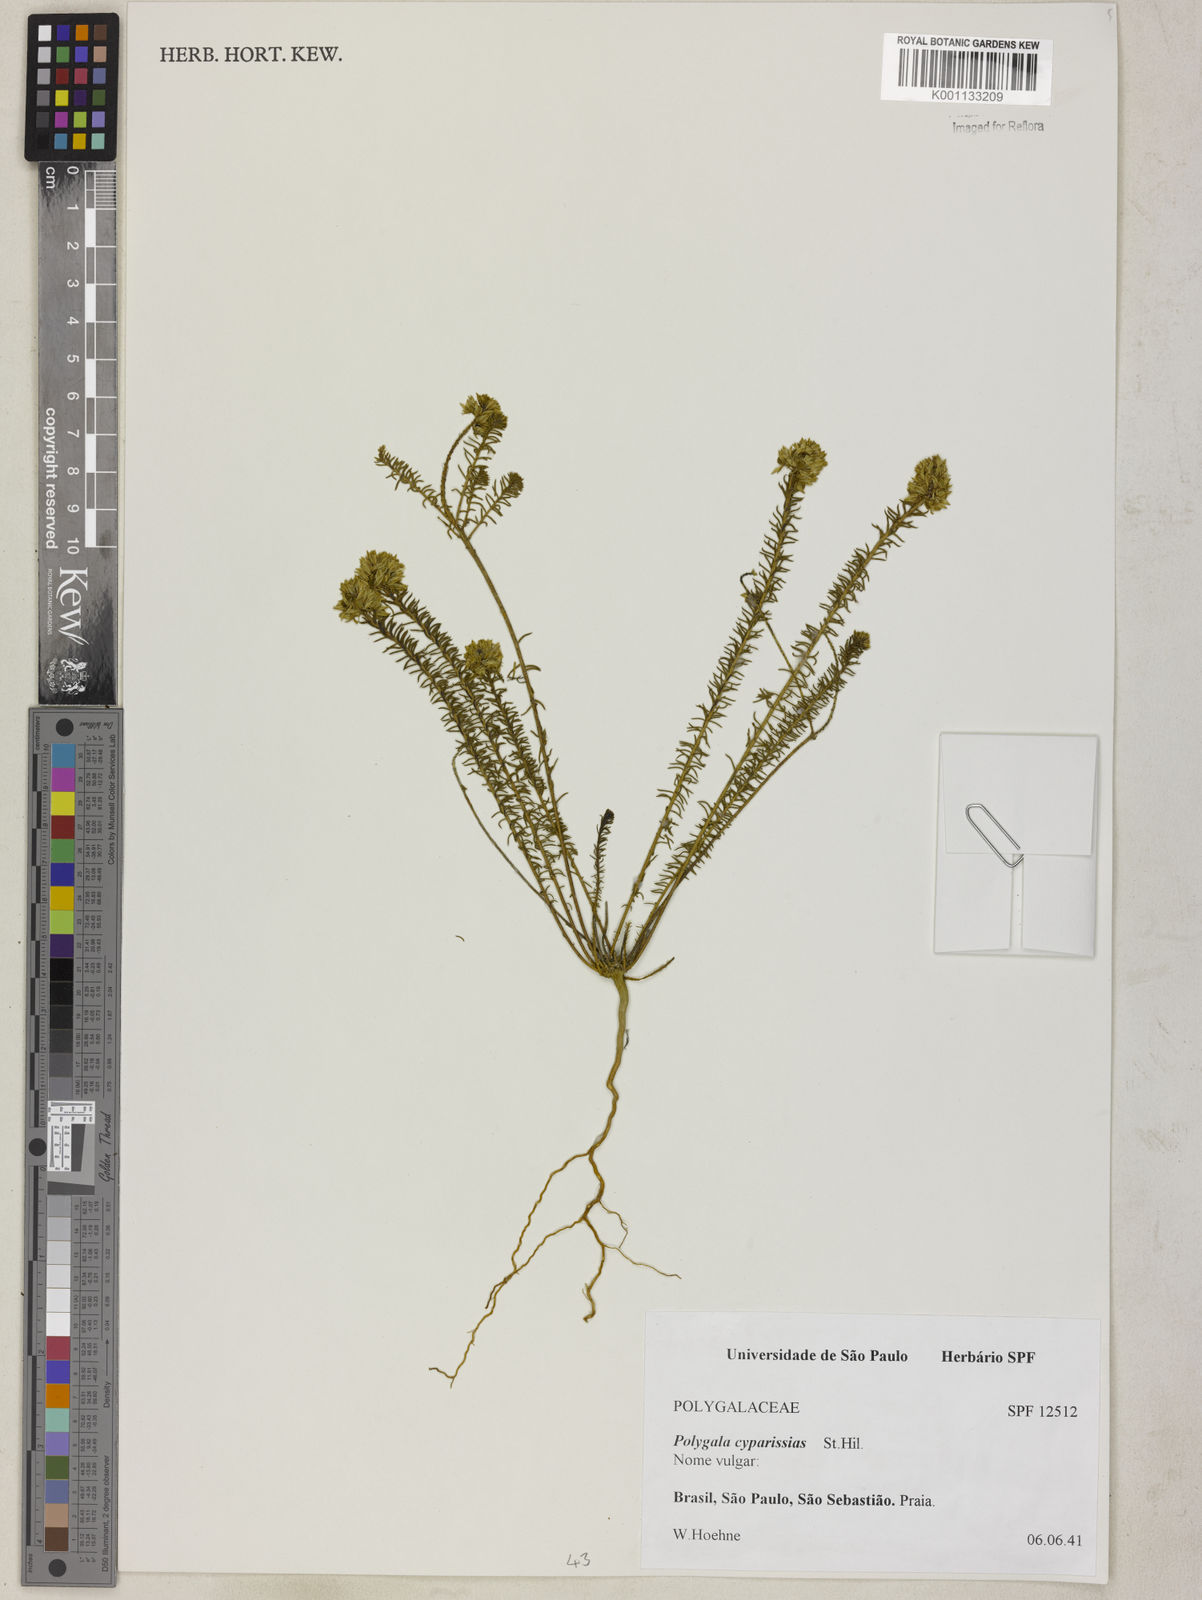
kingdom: Plantae
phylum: Tracheophyta
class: Magnoliopsida
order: Fabales
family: Polygalaceae
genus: Polygala
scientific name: Polygala cyparissias
